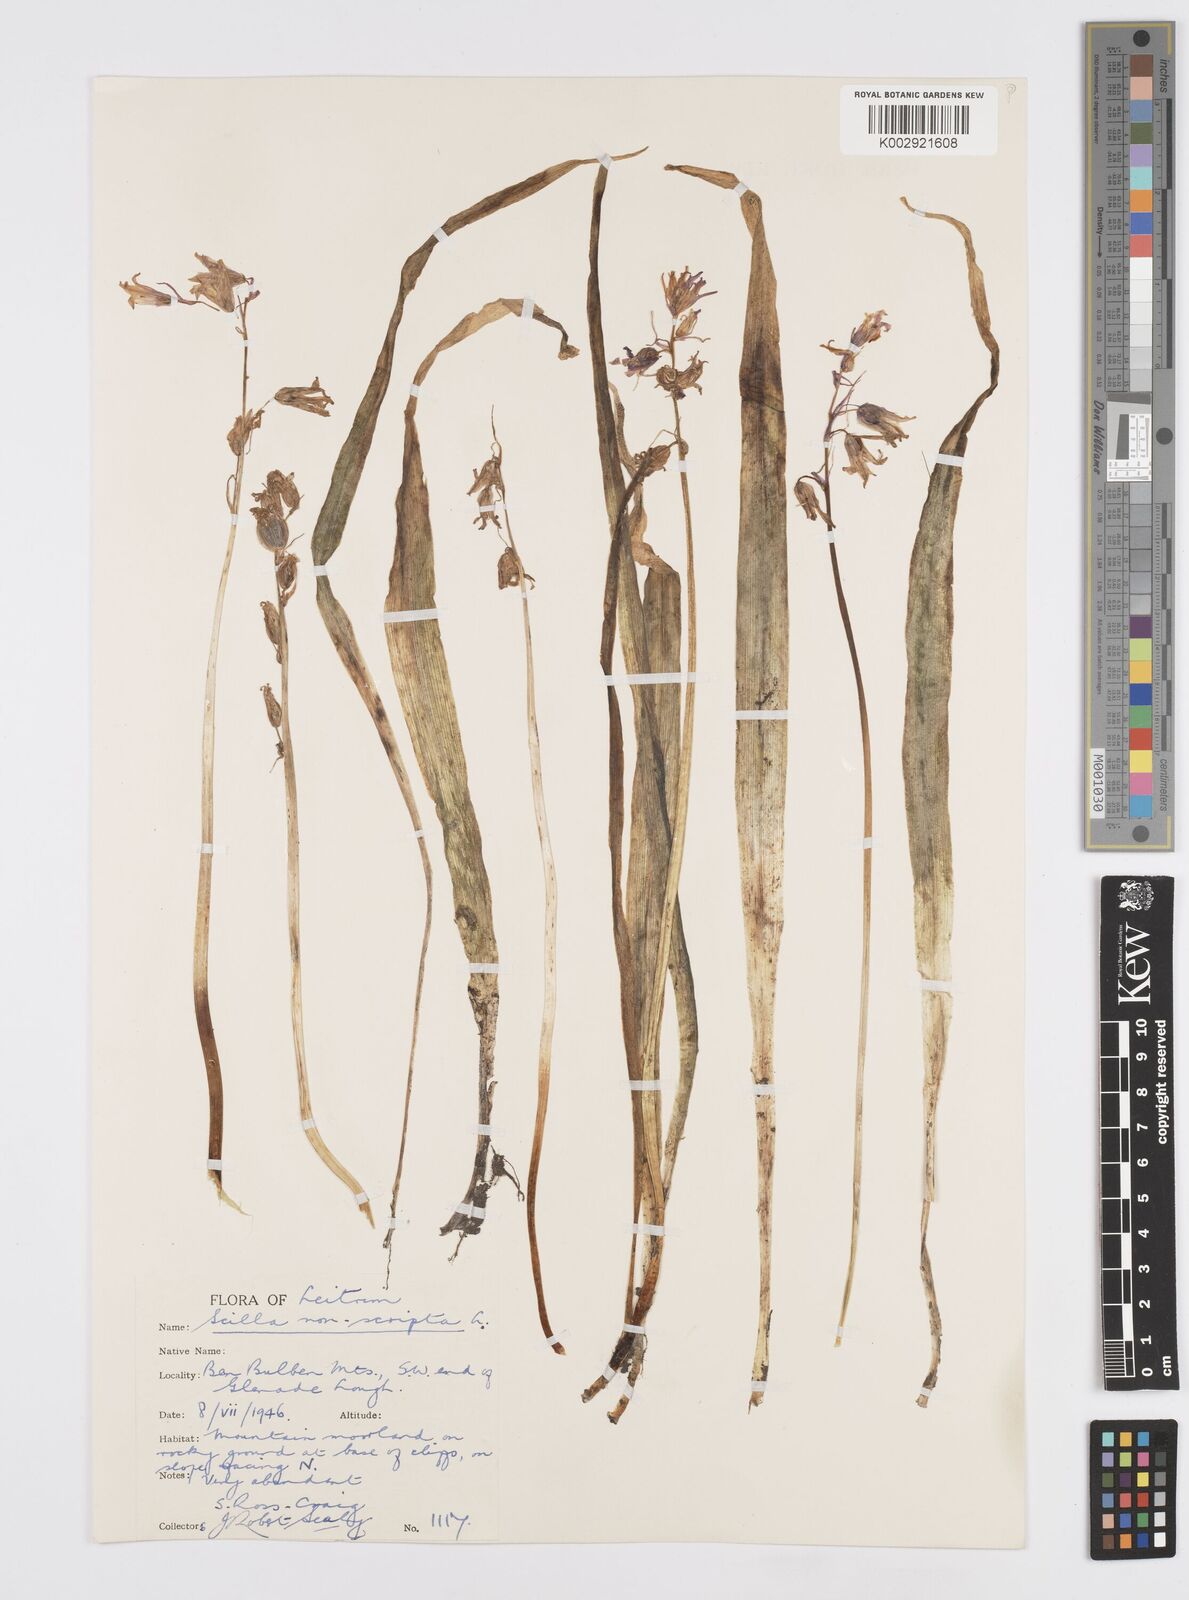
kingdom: Plantae
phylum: Tracheophyta
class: Liliopsida
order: Asparagales
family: Asparagaceae
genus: Hyacinthoides
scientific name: Hyacinthoides non-scripta
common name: Bluebell
